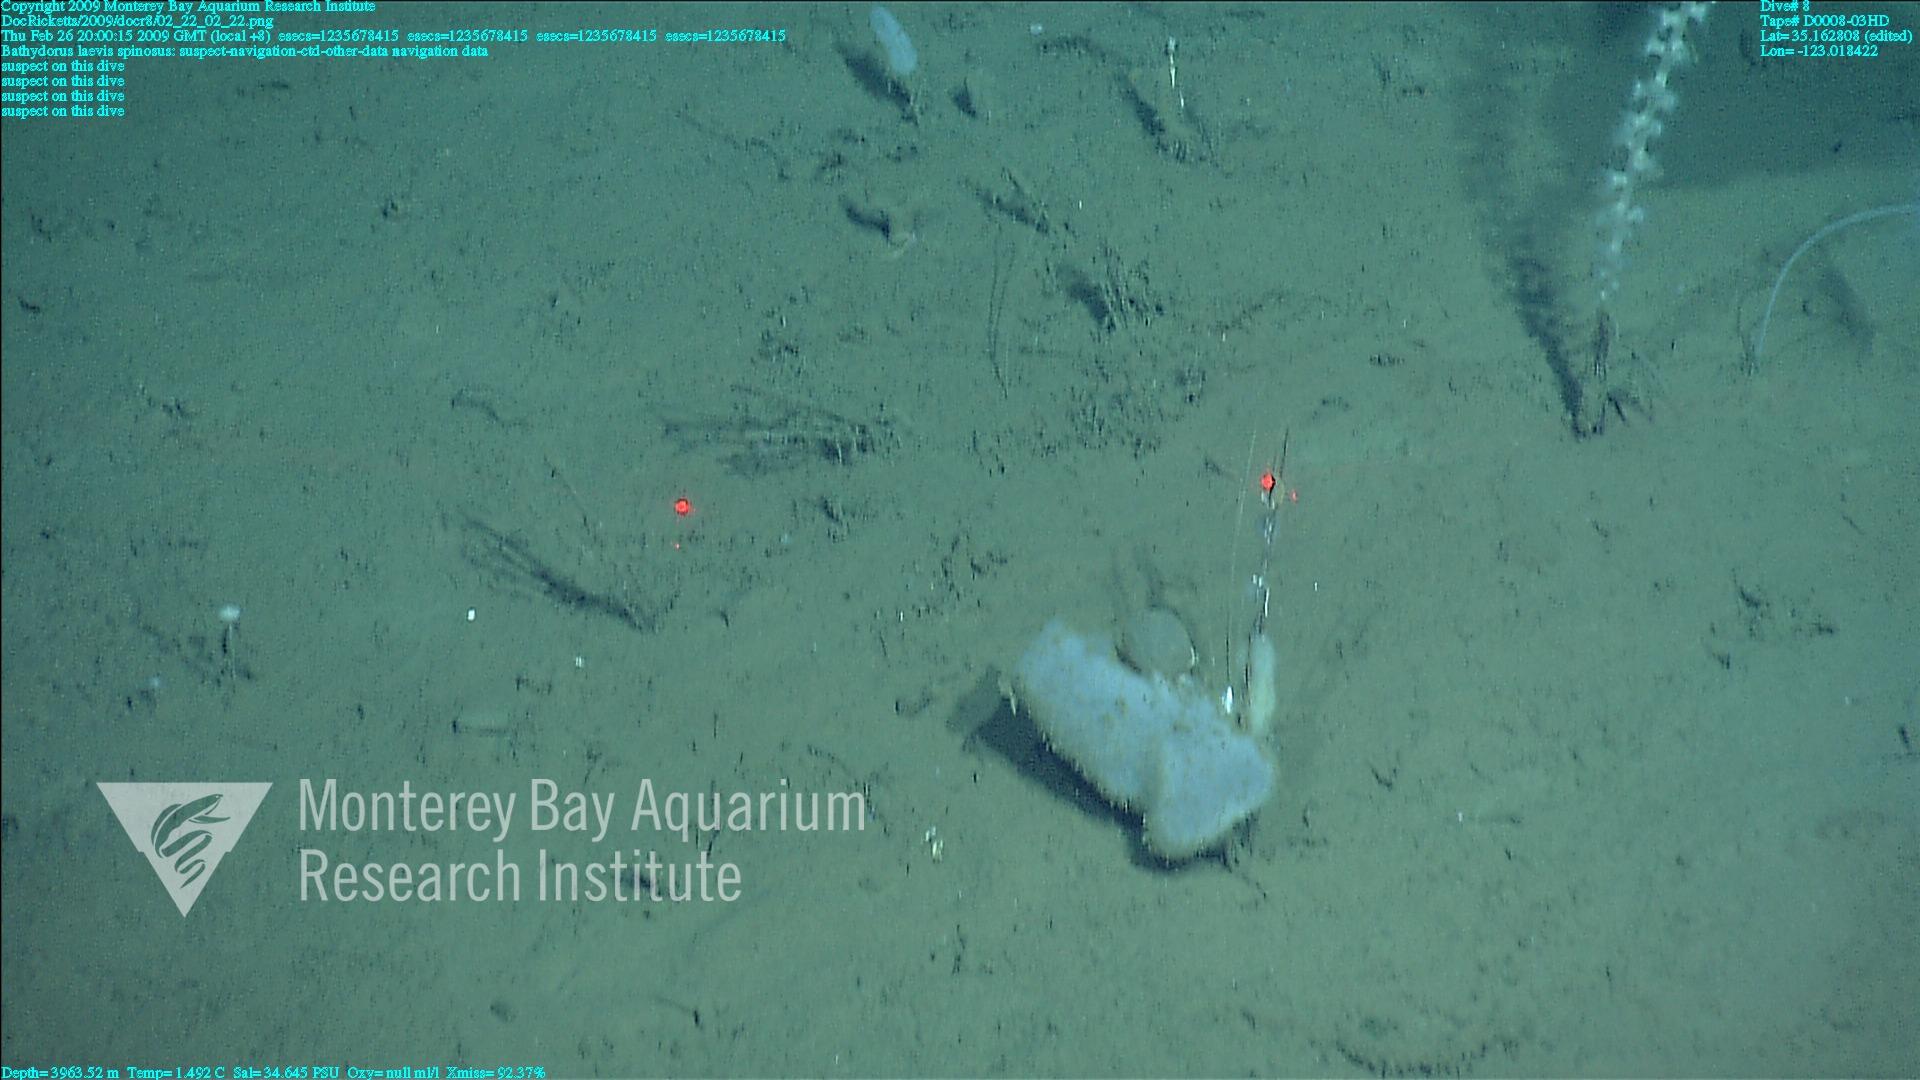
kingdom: Animalia
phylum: Porifera
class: Hexactinellida
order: Lyssacinosida
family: Rossellidae
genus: Bathydorus
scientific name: Bathydorus spinosus
